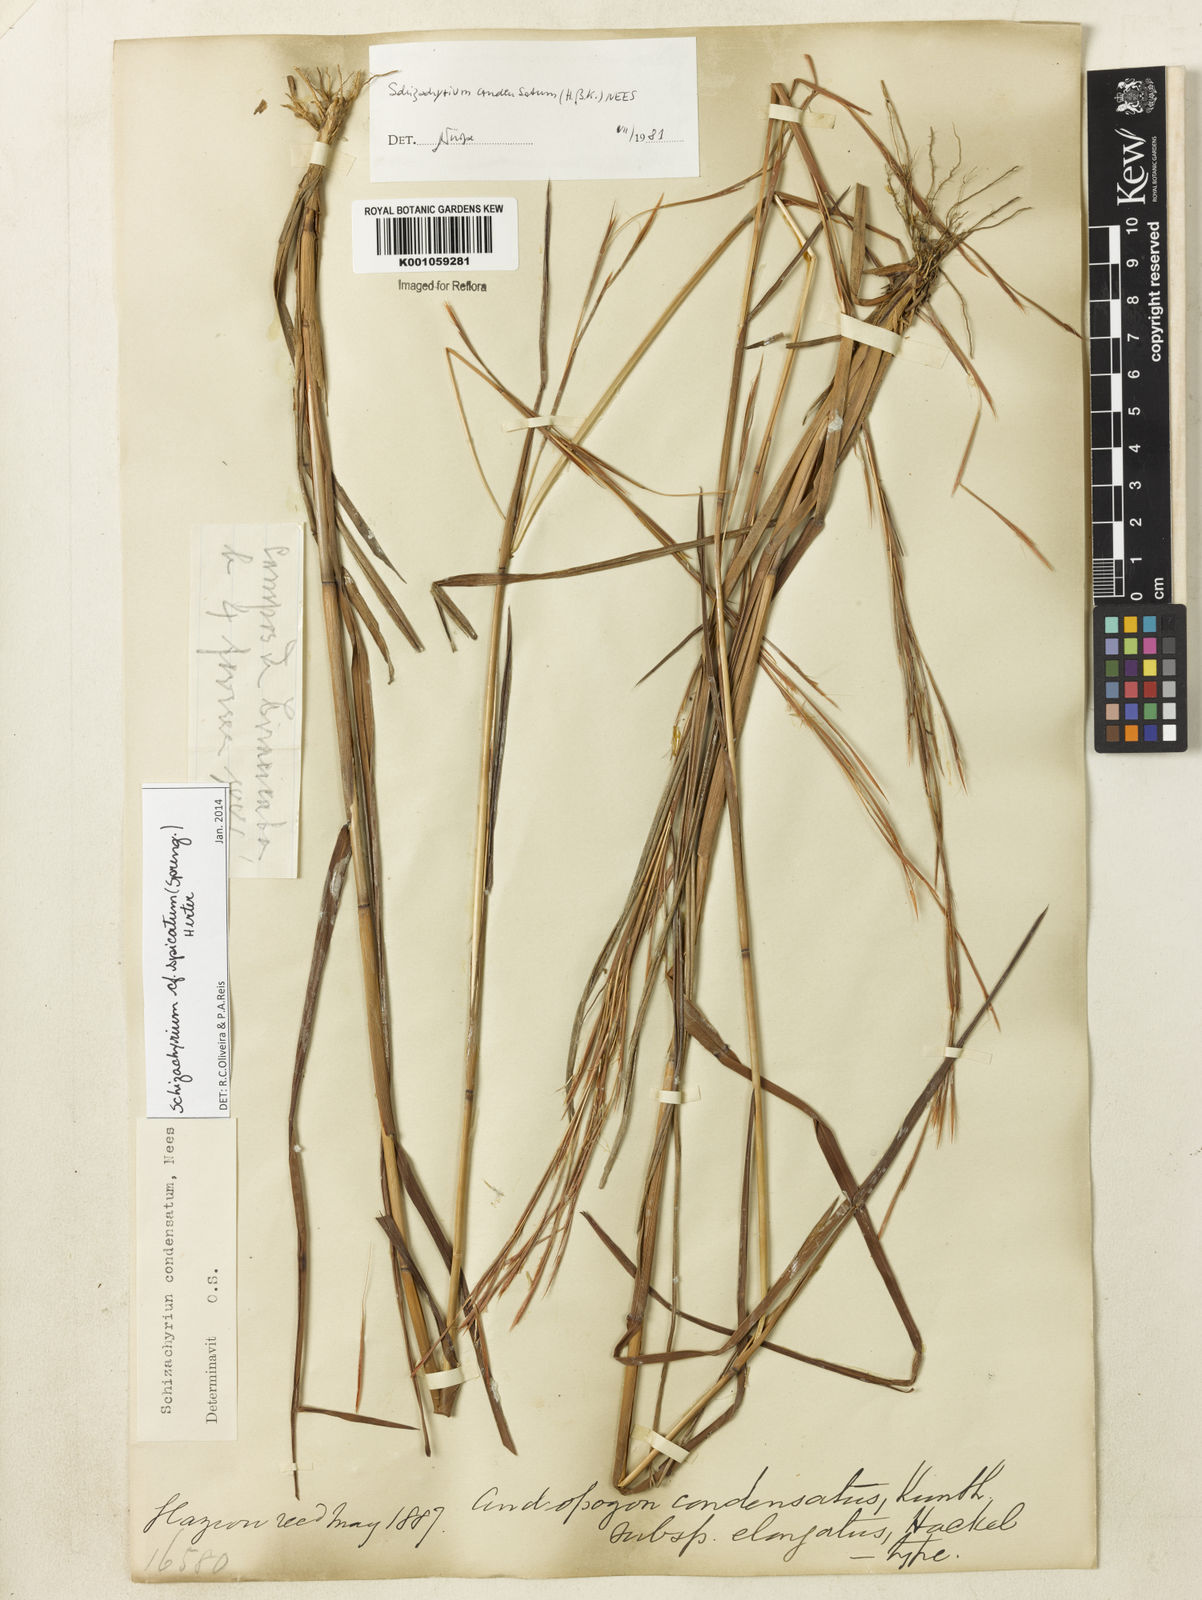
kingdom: Plantae
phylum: Tracheophyta
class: Liliopsida
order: Poales
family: Poaceae
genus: Schizachyrium
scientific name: Schizachyrium
